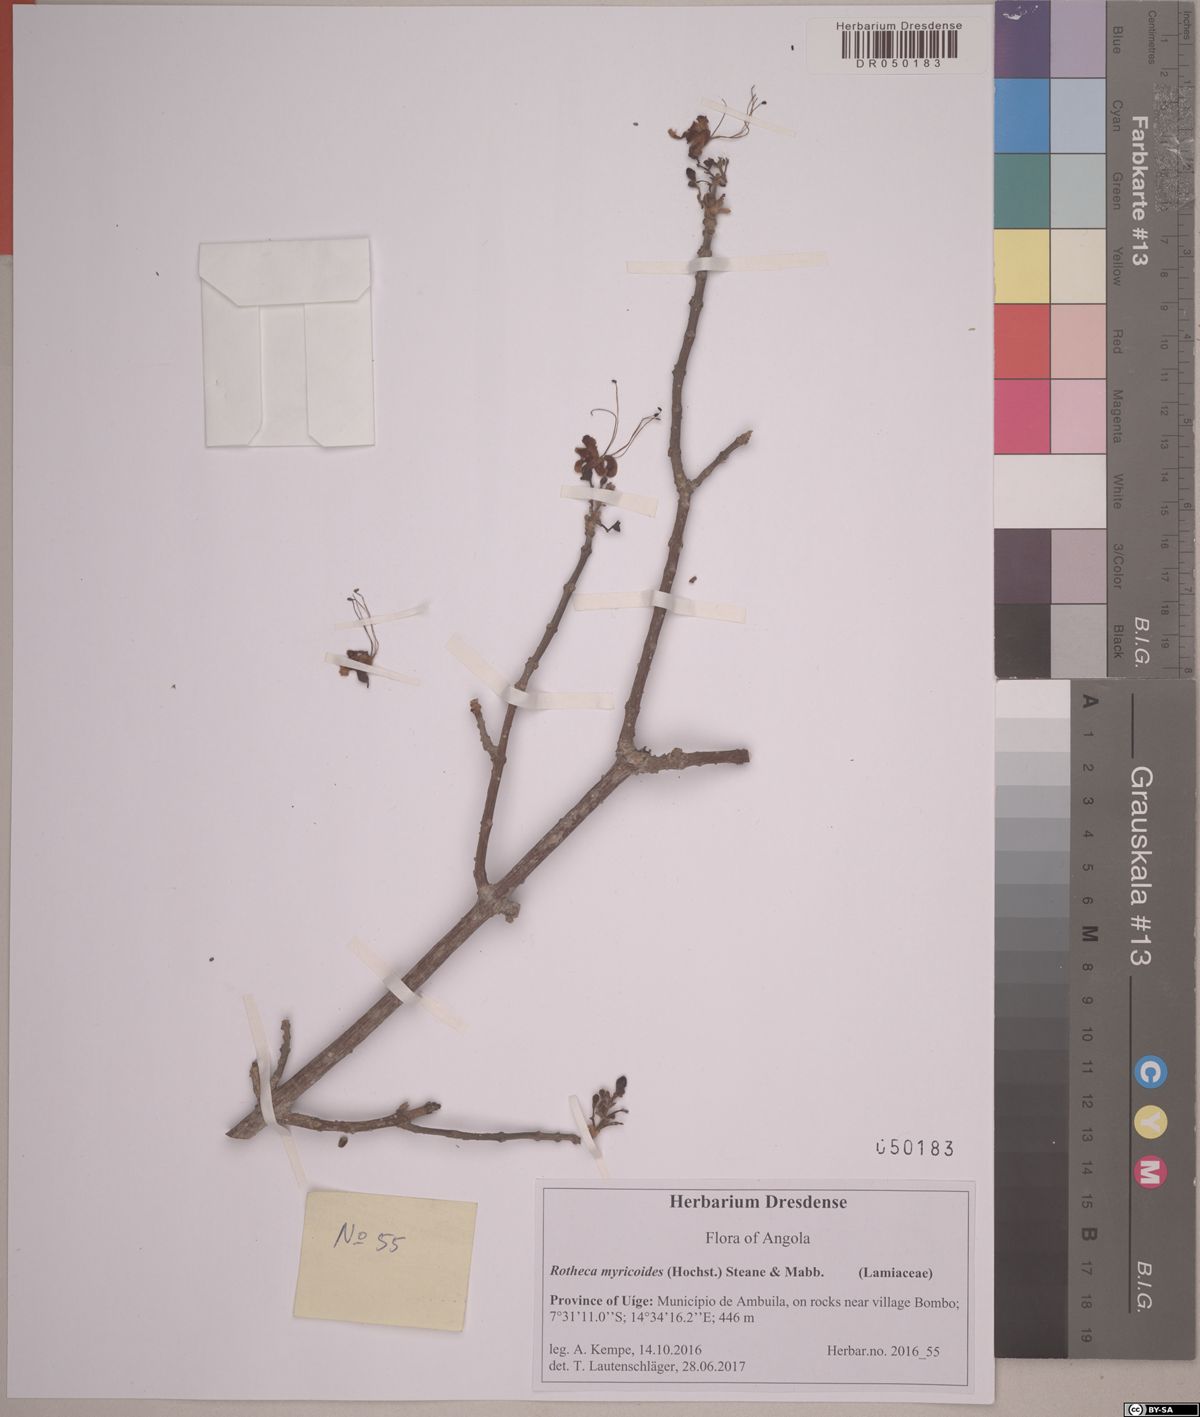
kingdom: Plantae
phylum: Tracheophyta
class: Magnoliopsida
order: Lamiales
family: Lamiaceae
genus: Rotheca
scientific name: Rotheca wildii
